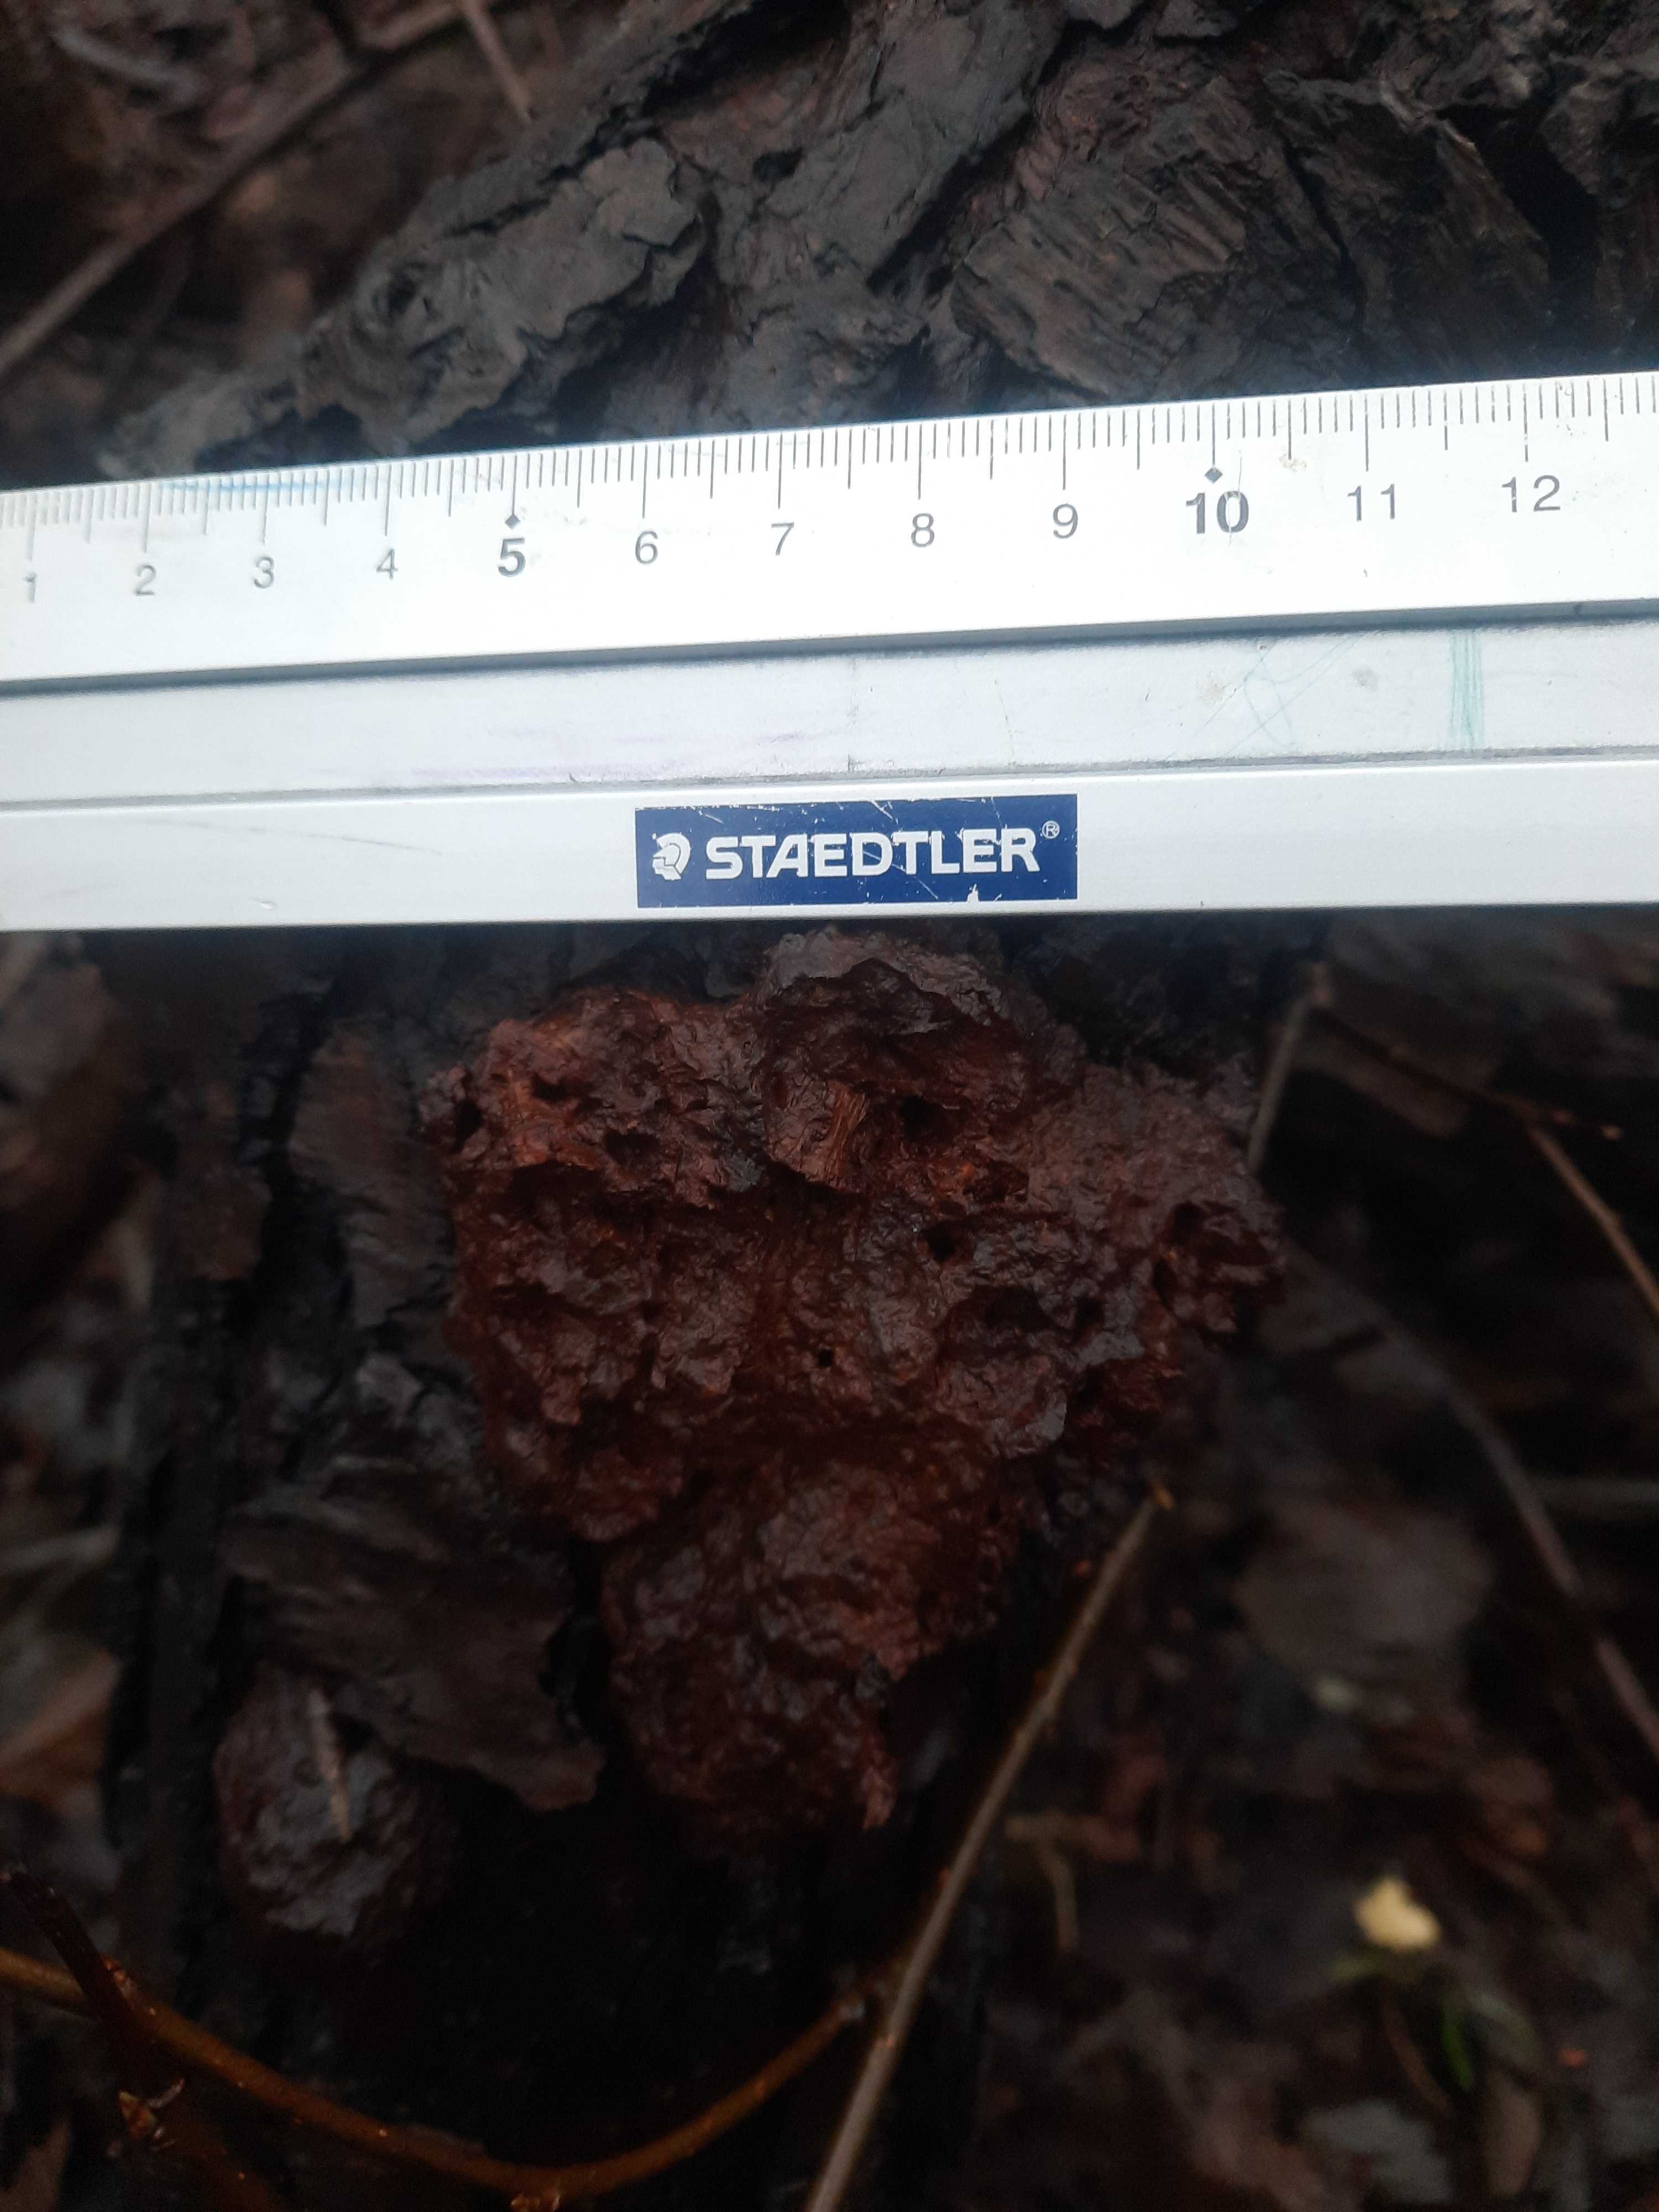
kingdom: Fungi
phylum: Basidiomycota
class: Agaricomycetes
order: Hymenochaetales
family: Hymenochaetaceae
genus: Xanthoporia
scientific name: Xanthoporia radiata
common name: elle-spejlporesvamp
